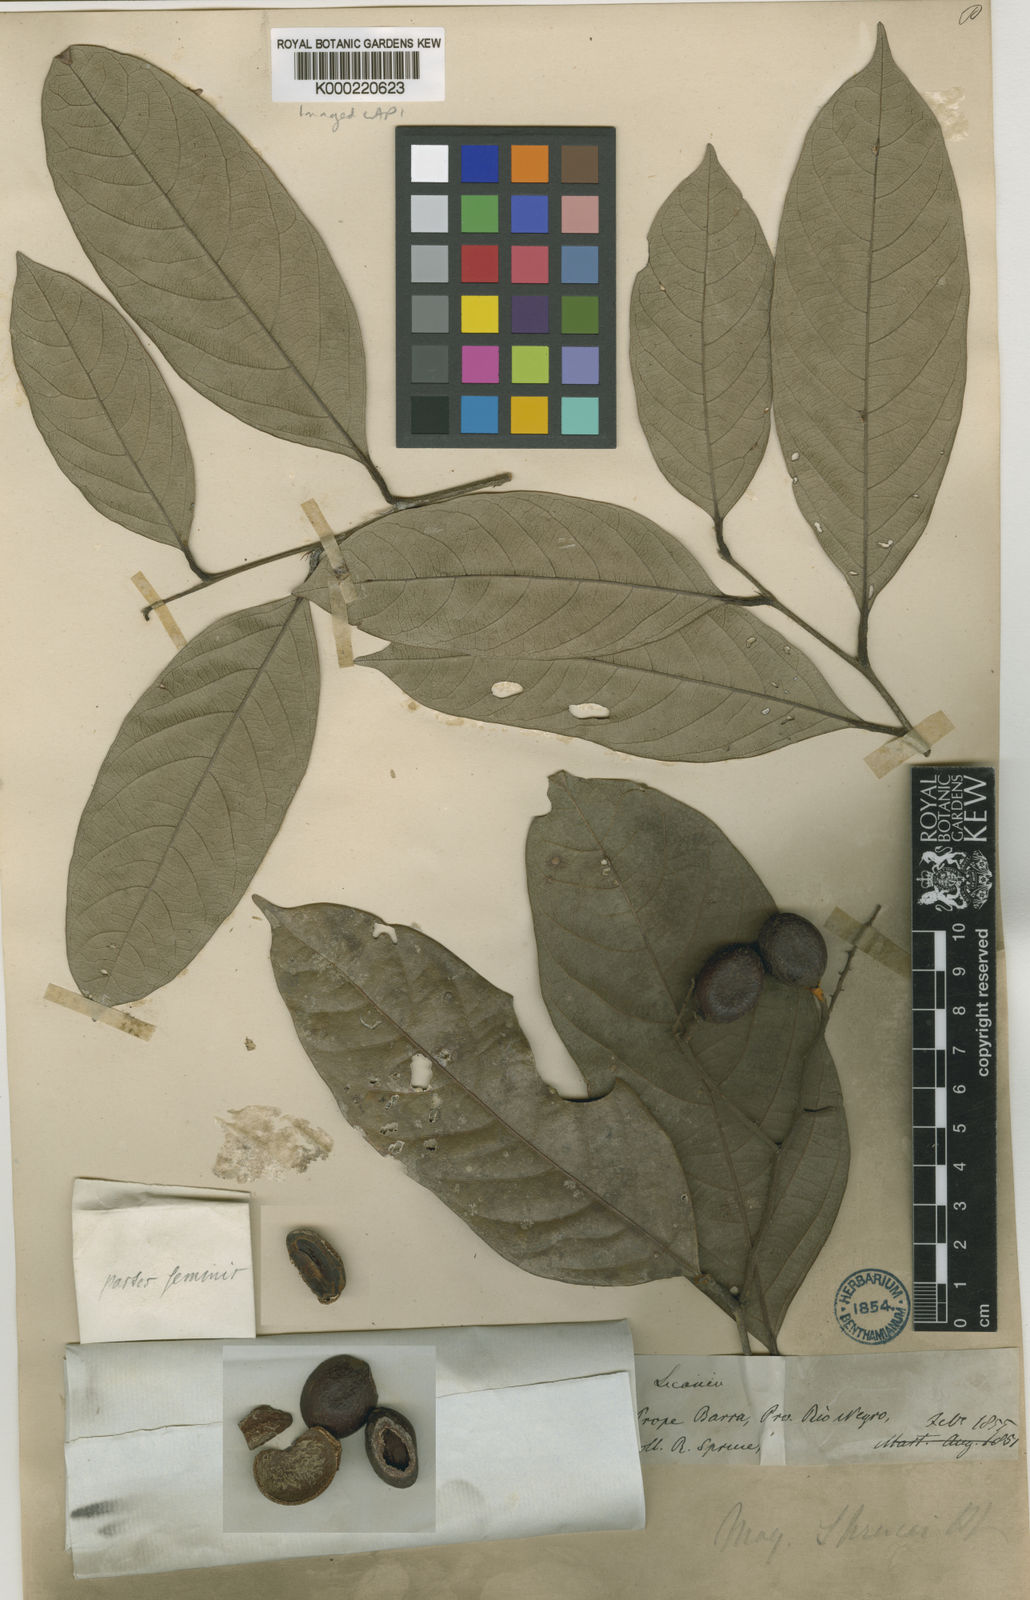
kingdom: Plantae
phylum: Tracheophyta
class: Magnoliopsida
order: Malpighiales
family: Chrysobalanaceae
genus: Leptobalanus
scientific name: Leptobalanus sprucei
